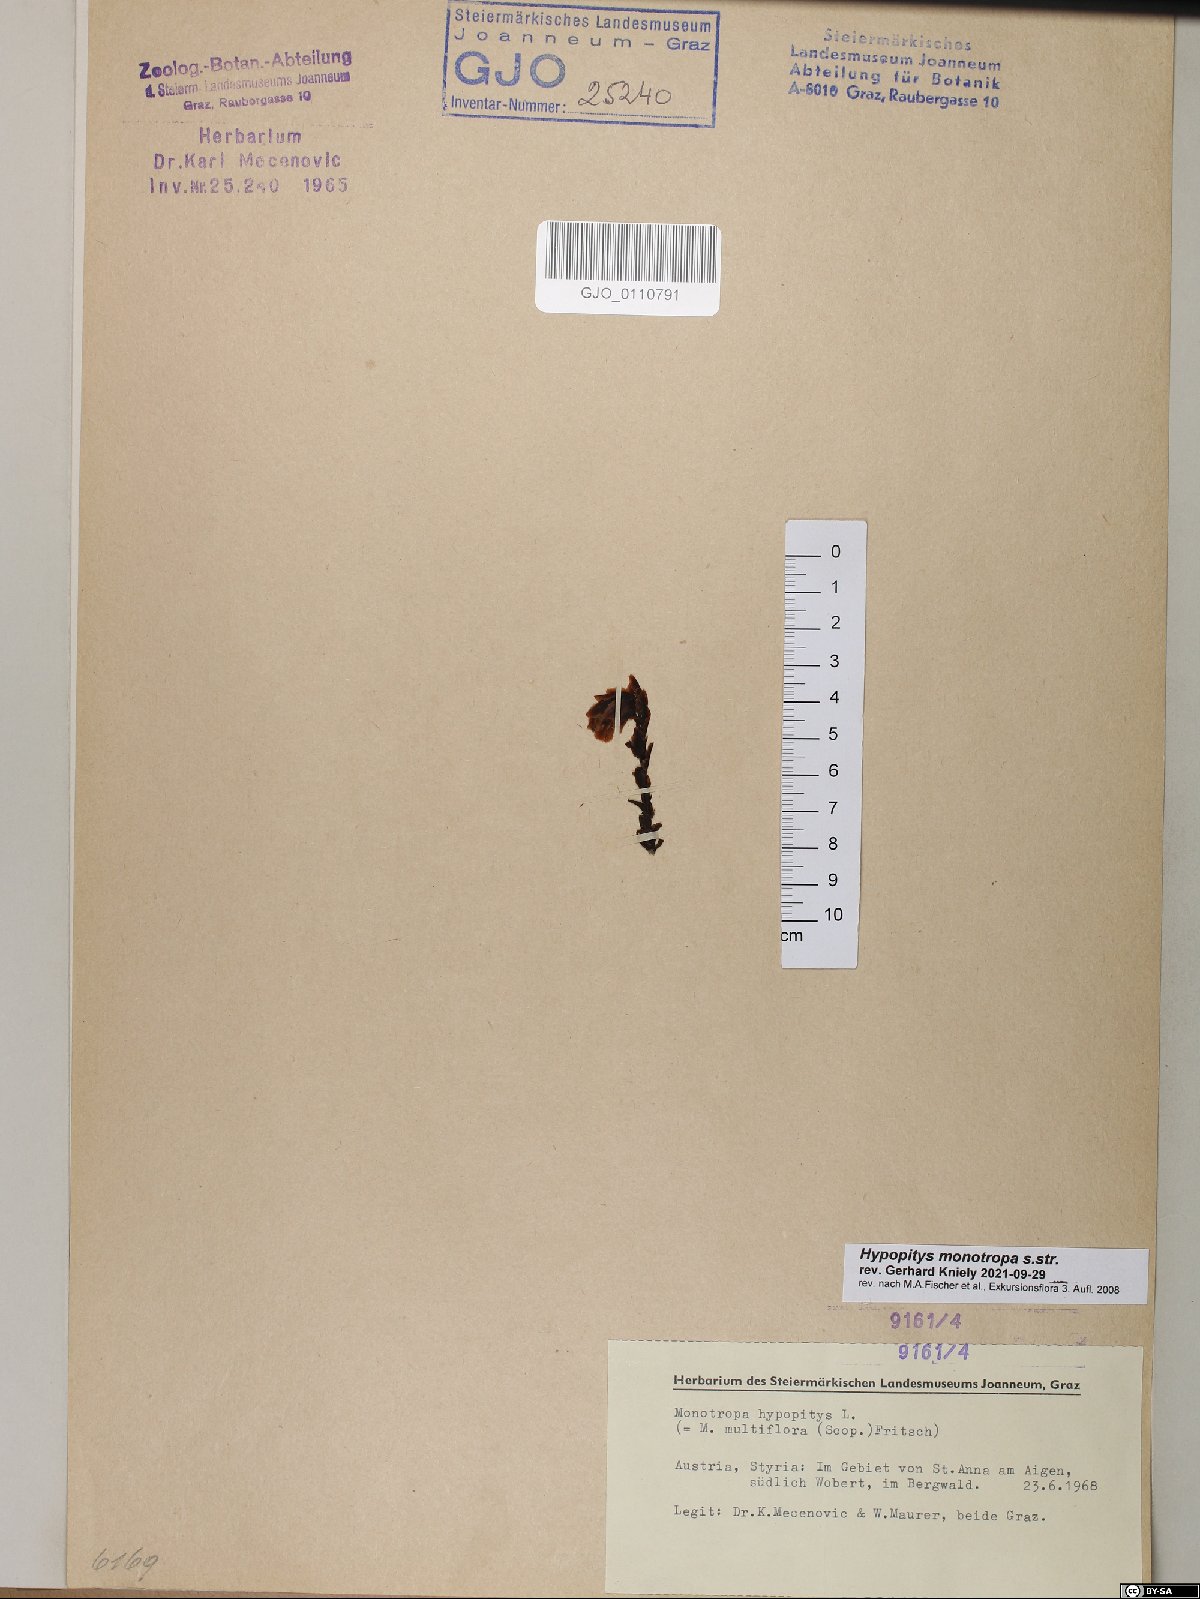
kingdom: Plantae
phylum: Tracheophyta
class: Magnoliopsida
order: Ericales
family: Ericaceae
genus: Hypopitys
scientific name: Hypopitys monotropa
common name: Yellow bird's-nest
